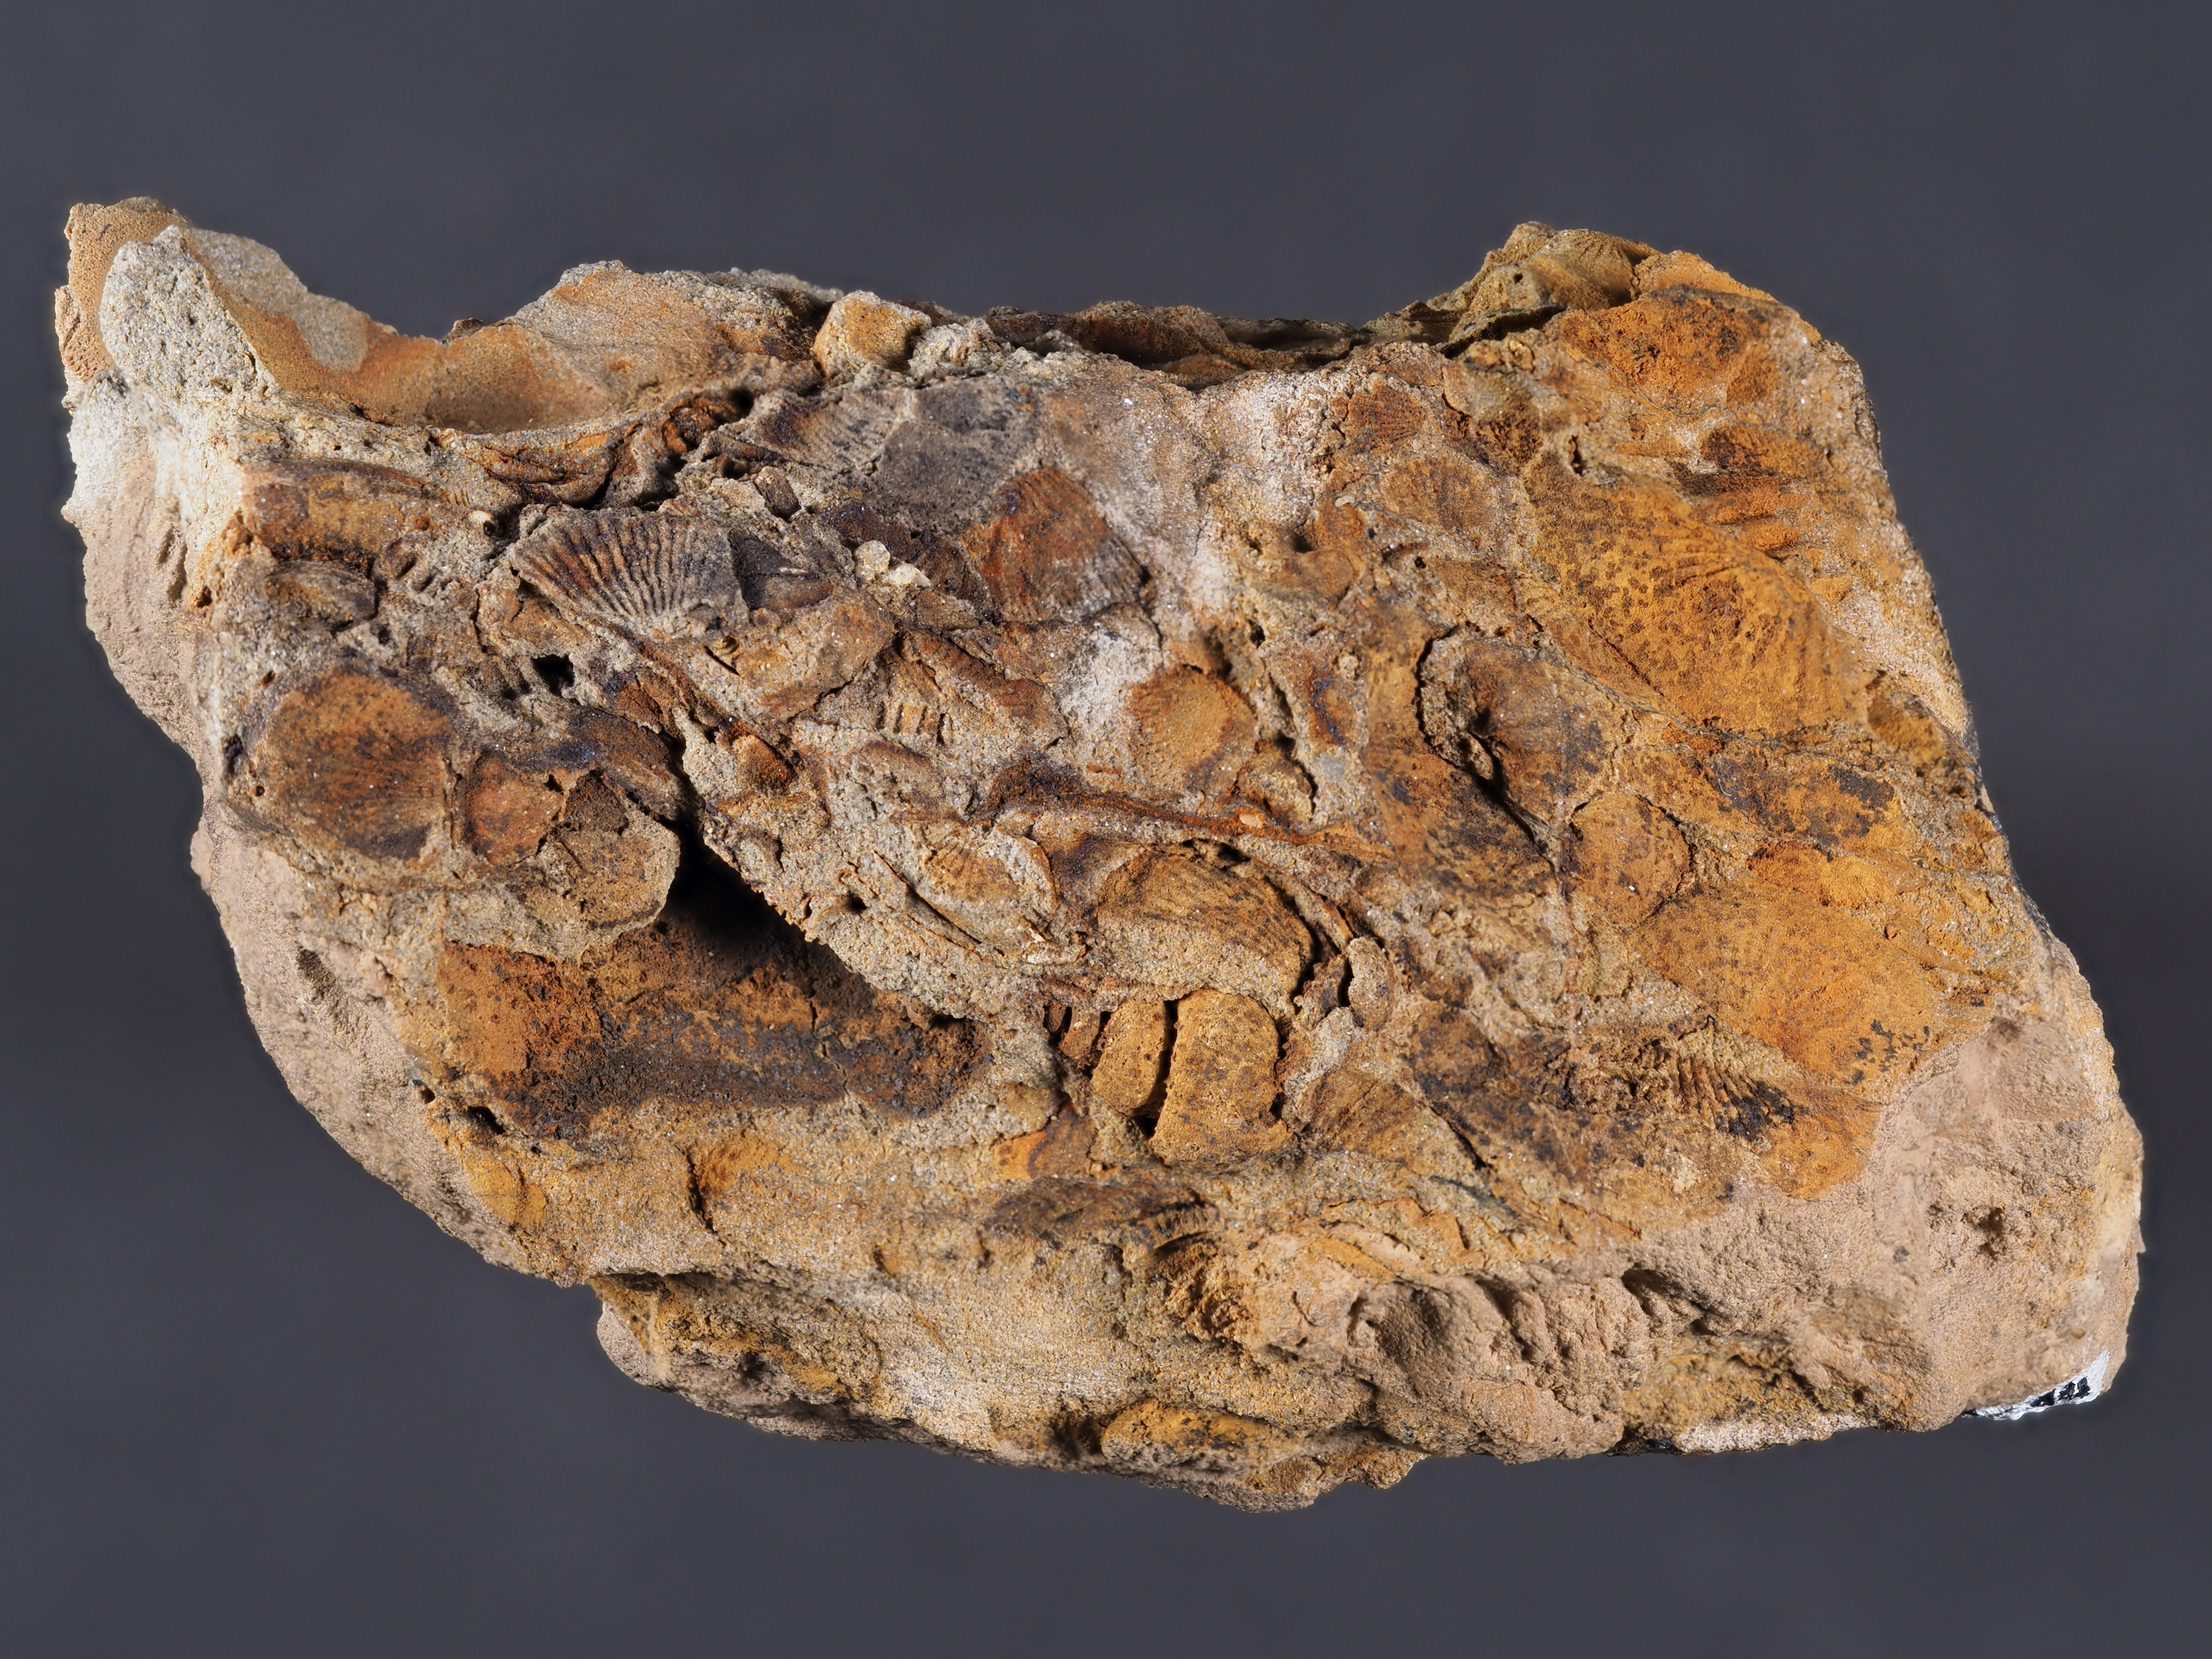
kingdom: Animalia
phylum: Mollusca
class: Gastropoda
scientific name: Gastropoda
